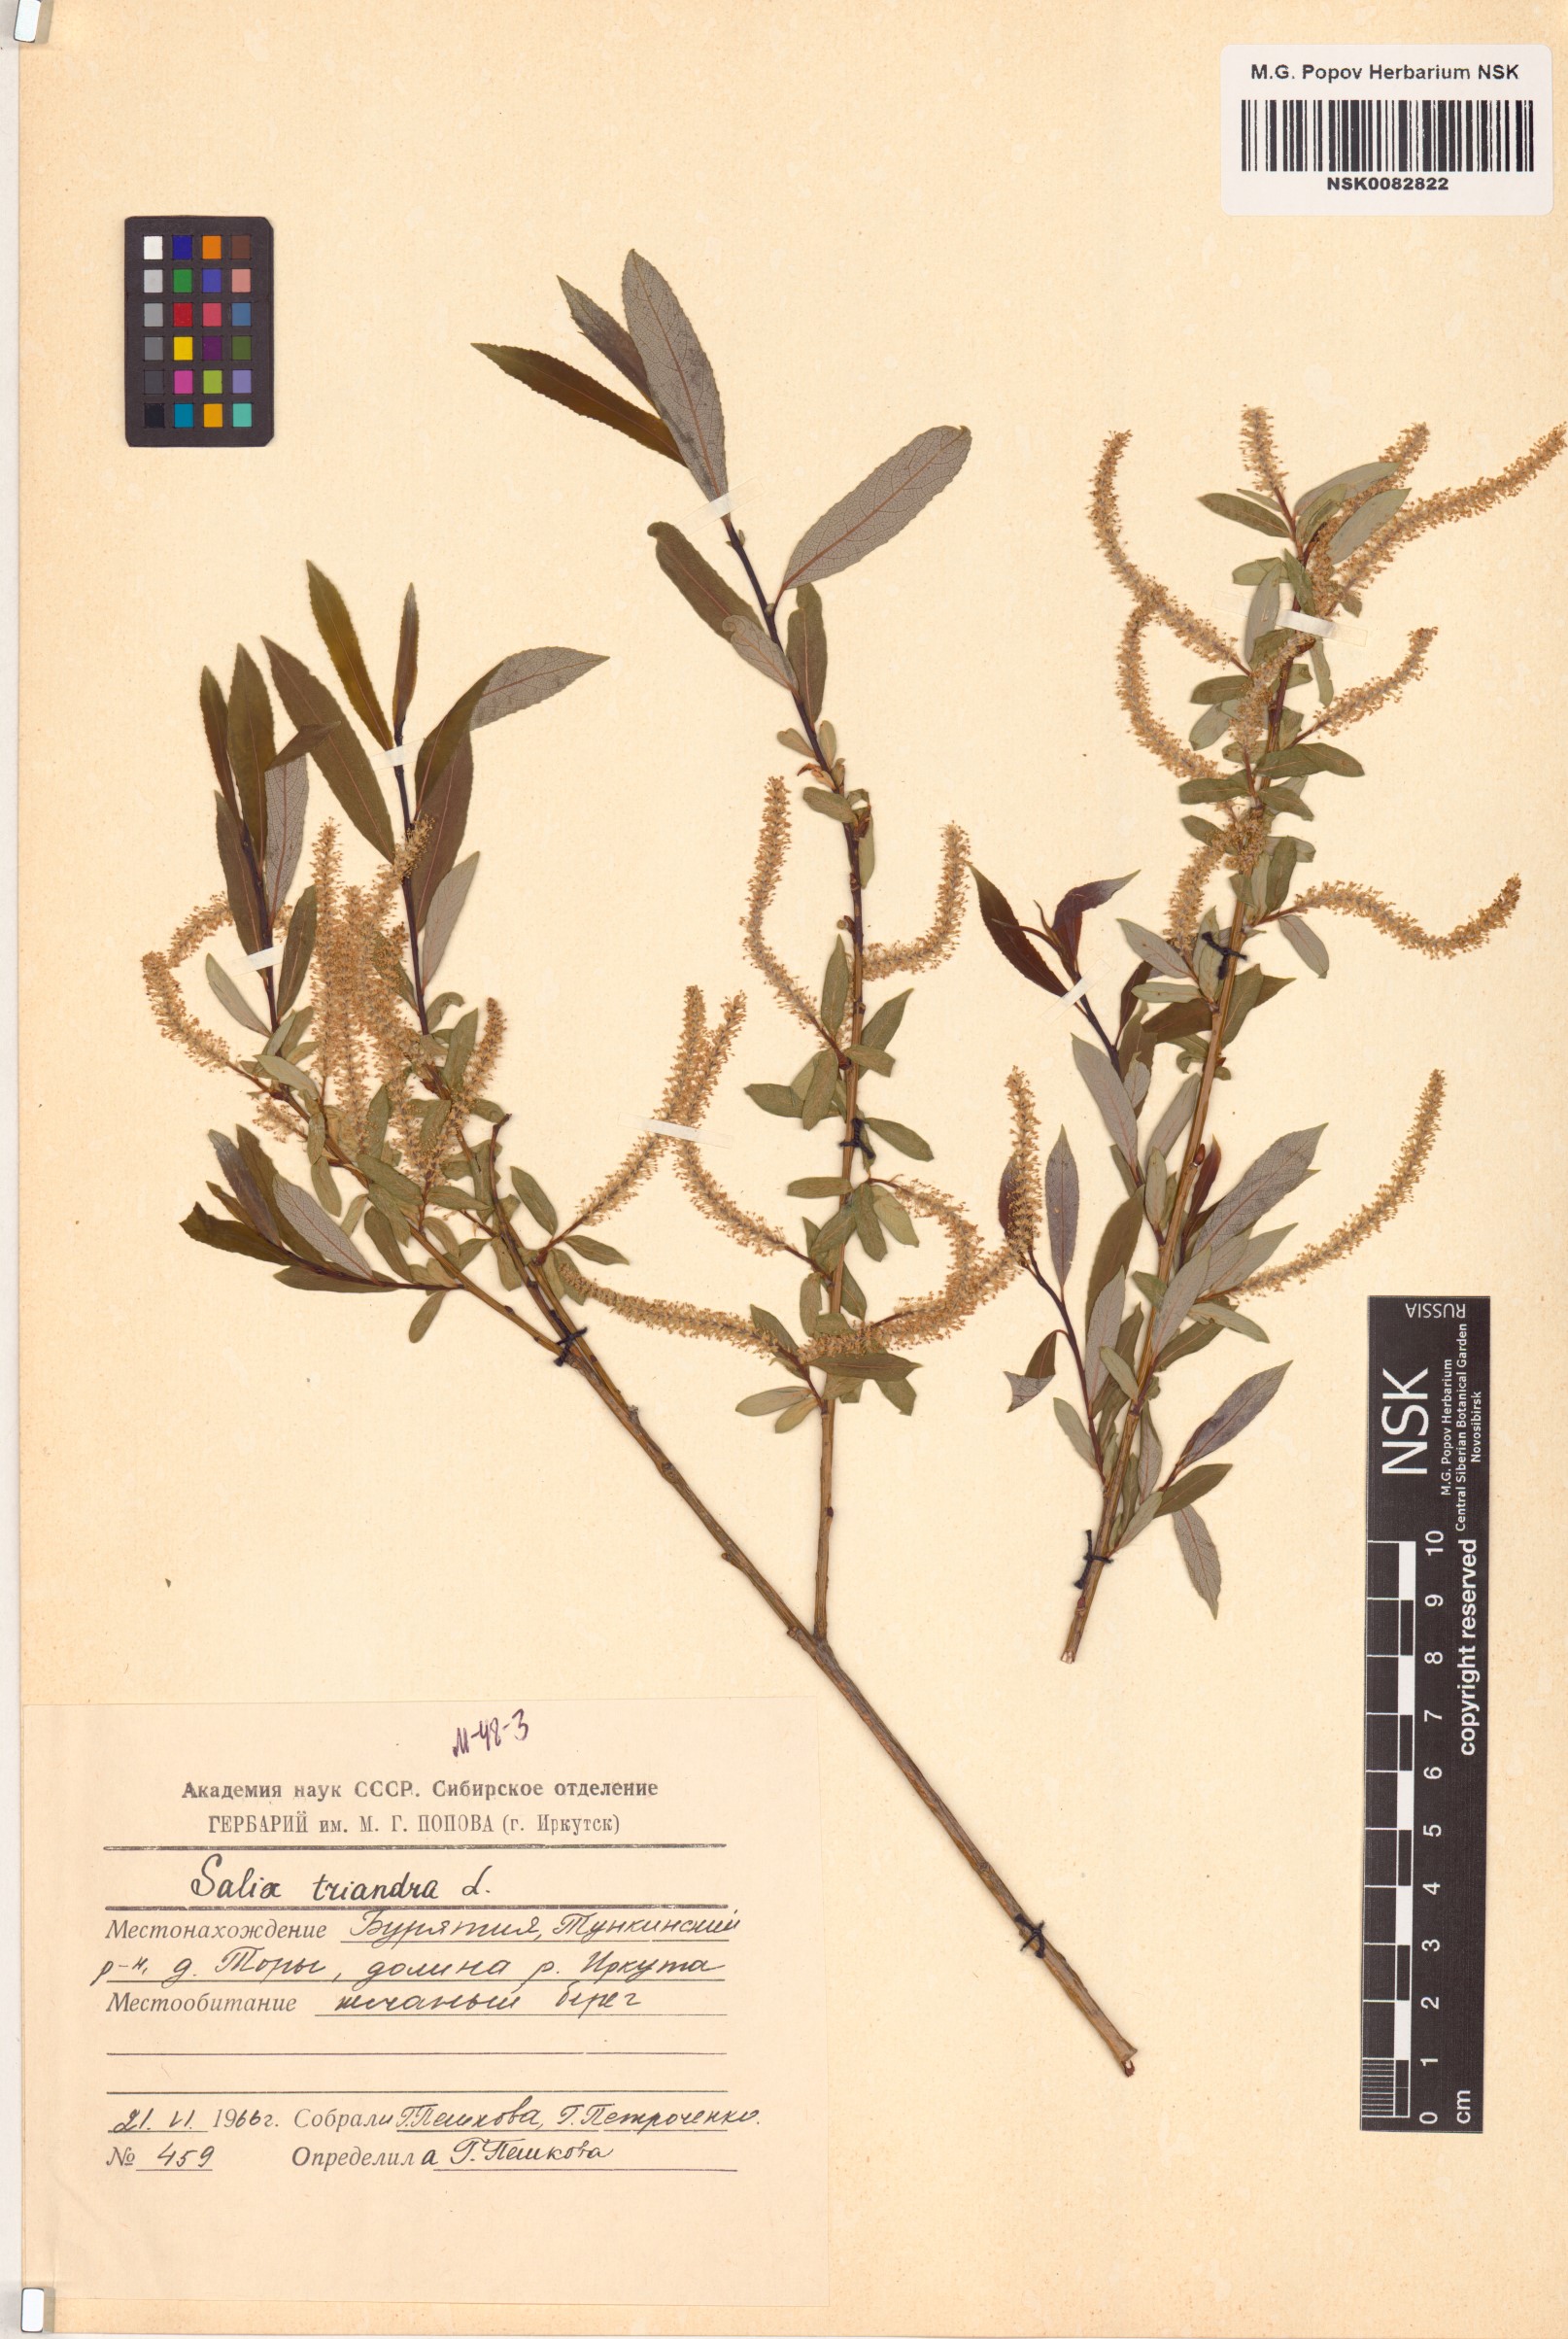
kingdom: Plantae
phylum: Tracheophyta
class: Magnoliopsida
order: Malpighiales
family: Salicaceae
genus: Salix
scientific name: Salix triandra
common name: Almond willow
